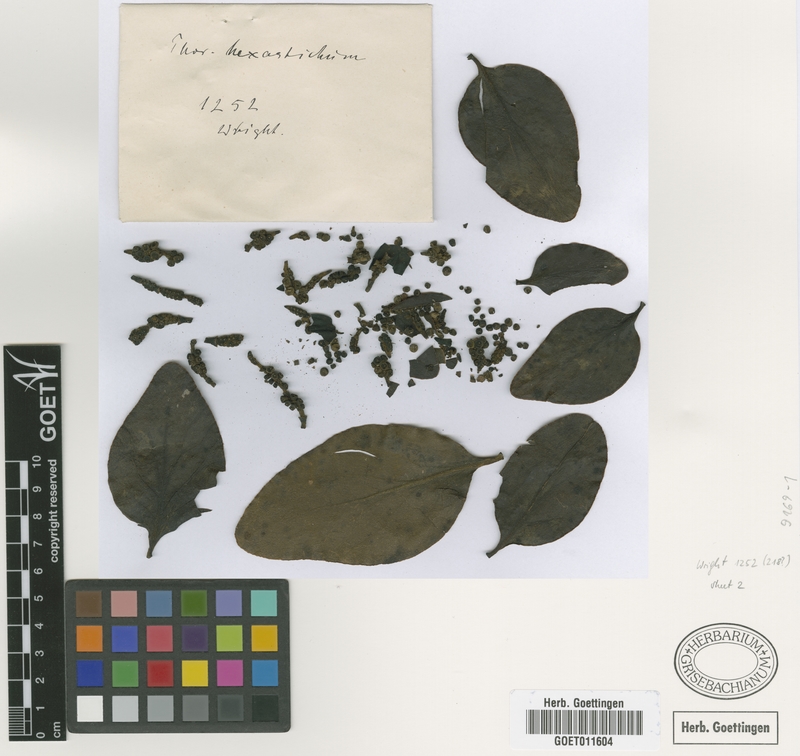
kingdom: Plantae
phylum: Tracheophyta
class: Magnoliopsida
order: Santalales
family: Viscaceae
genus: Phoradendron
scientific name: Phoradendron hexastichum
